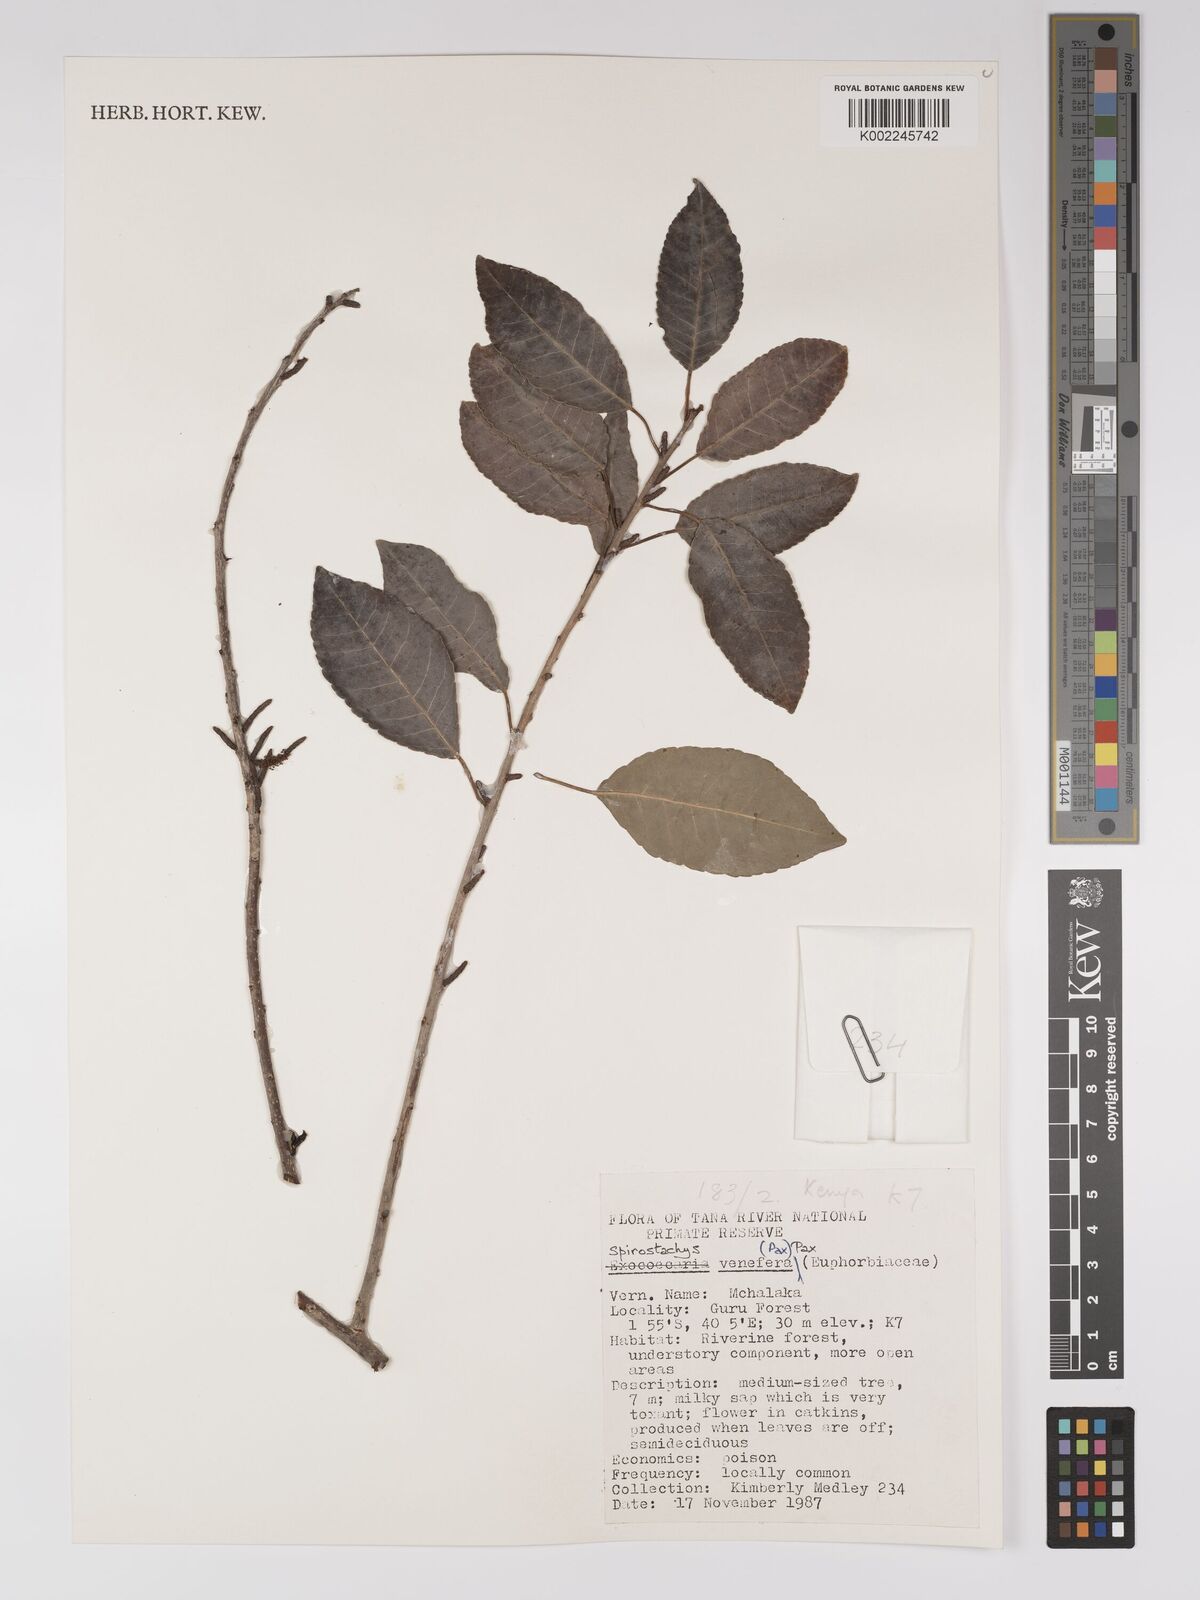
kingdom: Plantae
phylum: Tracheophyta
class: Magnoliopsida
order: Malpighiales
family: Euphorbiaceae
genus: Spirostachys
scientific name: Spirostachys venenifera
